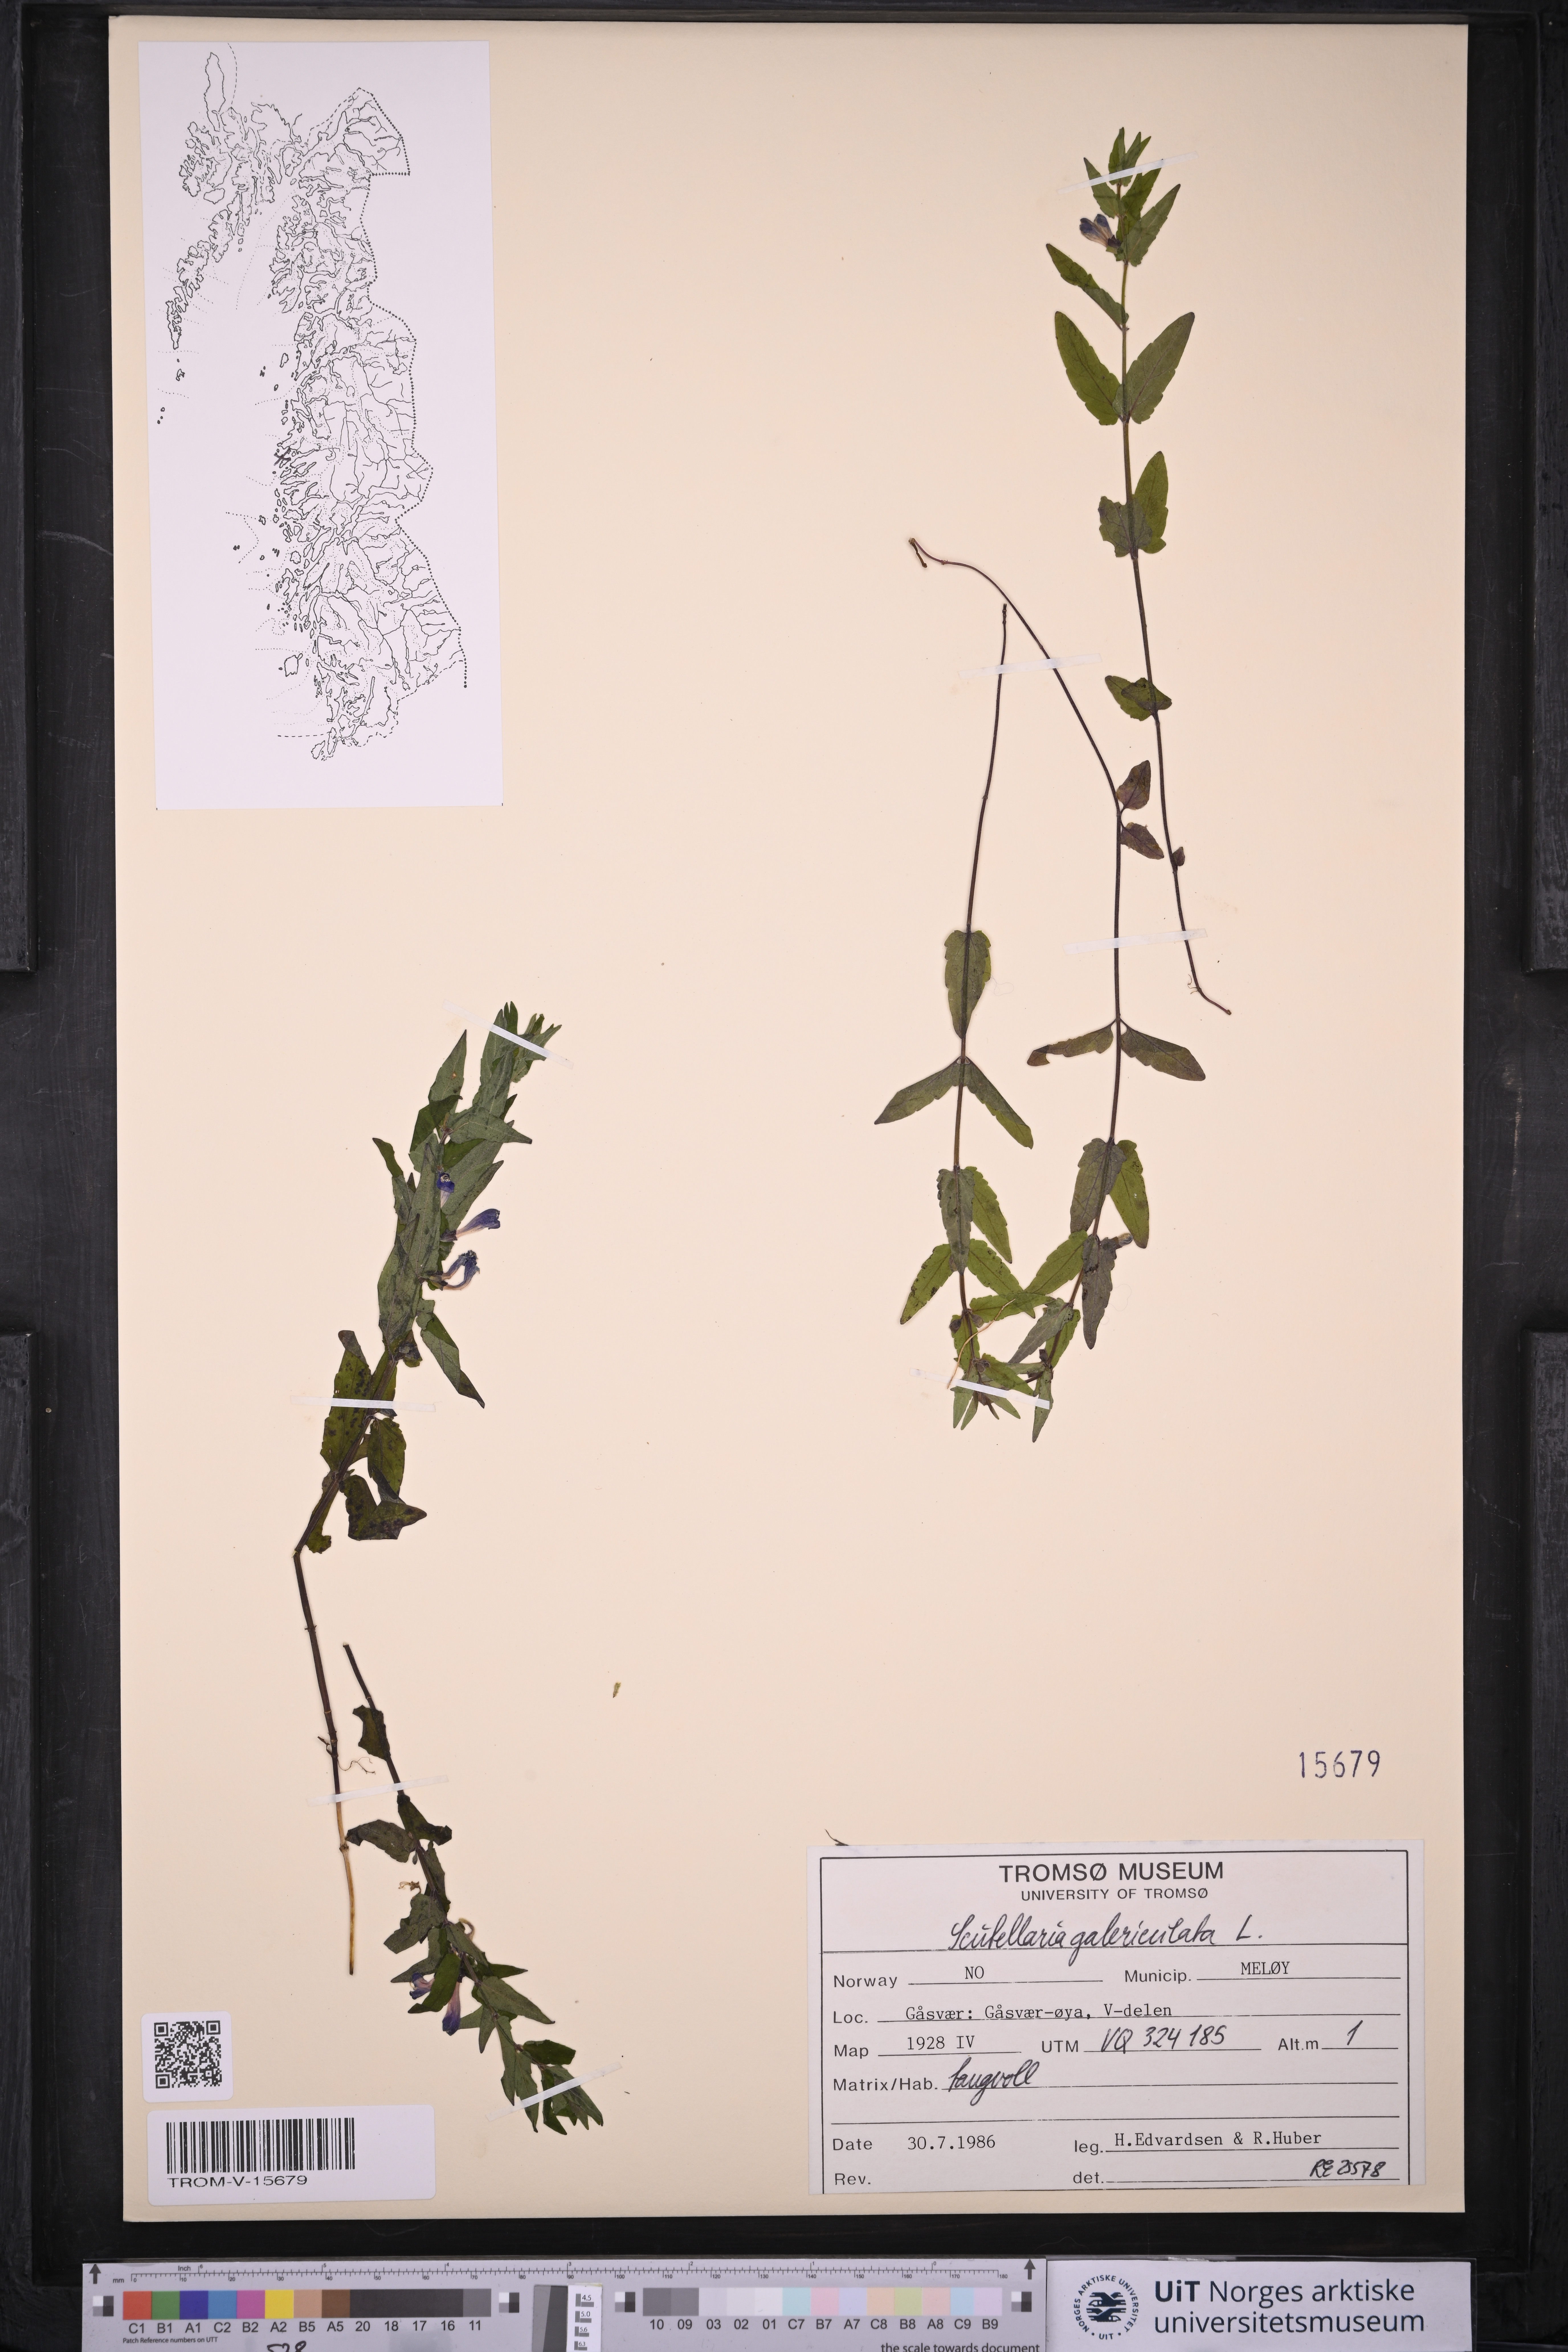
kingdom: Plantae
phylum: Tracheophyta
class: Magnoliopsida
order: Lamiales
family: Lamiaceae
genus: Scutellaria
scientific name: Scutellaria galericulata
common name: Skullcap
